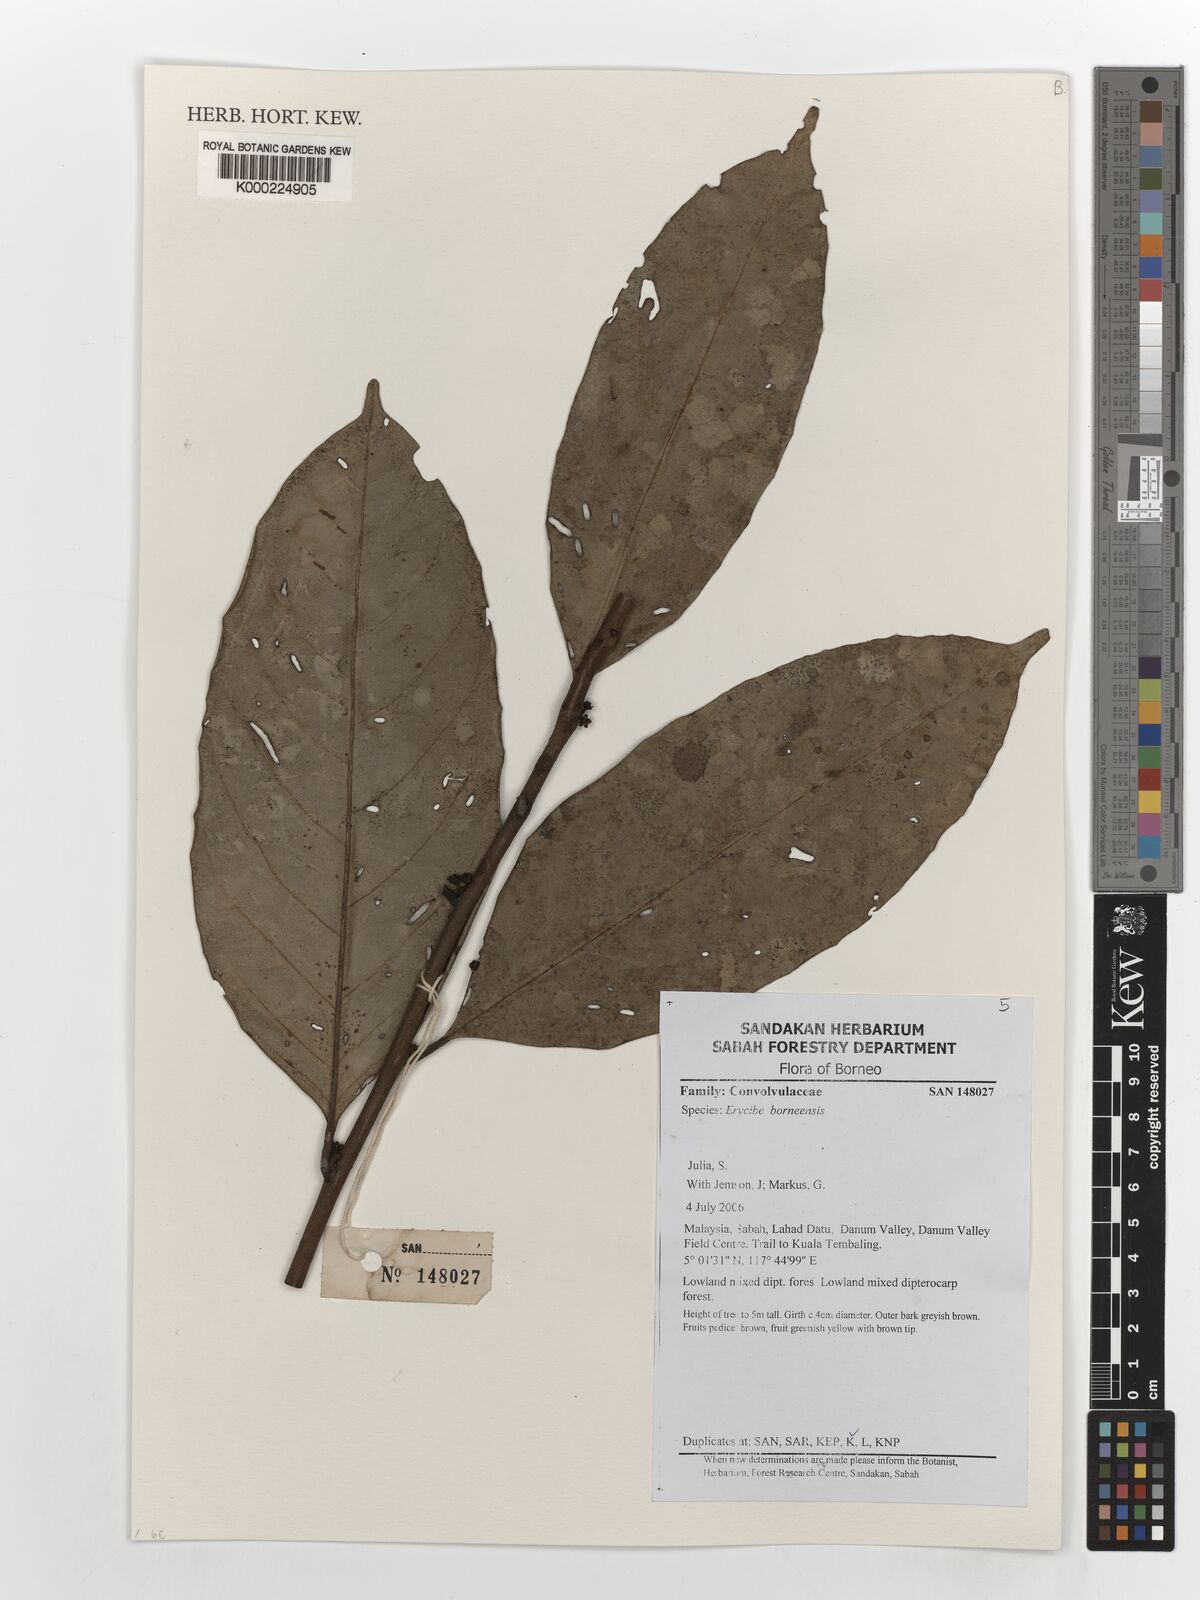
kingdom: Plantae
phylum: Tracheophyta
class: Magnoliopsida
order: Solanales
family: Convolvulaceae
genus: Erycibe
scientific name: Erycibe borneensis
